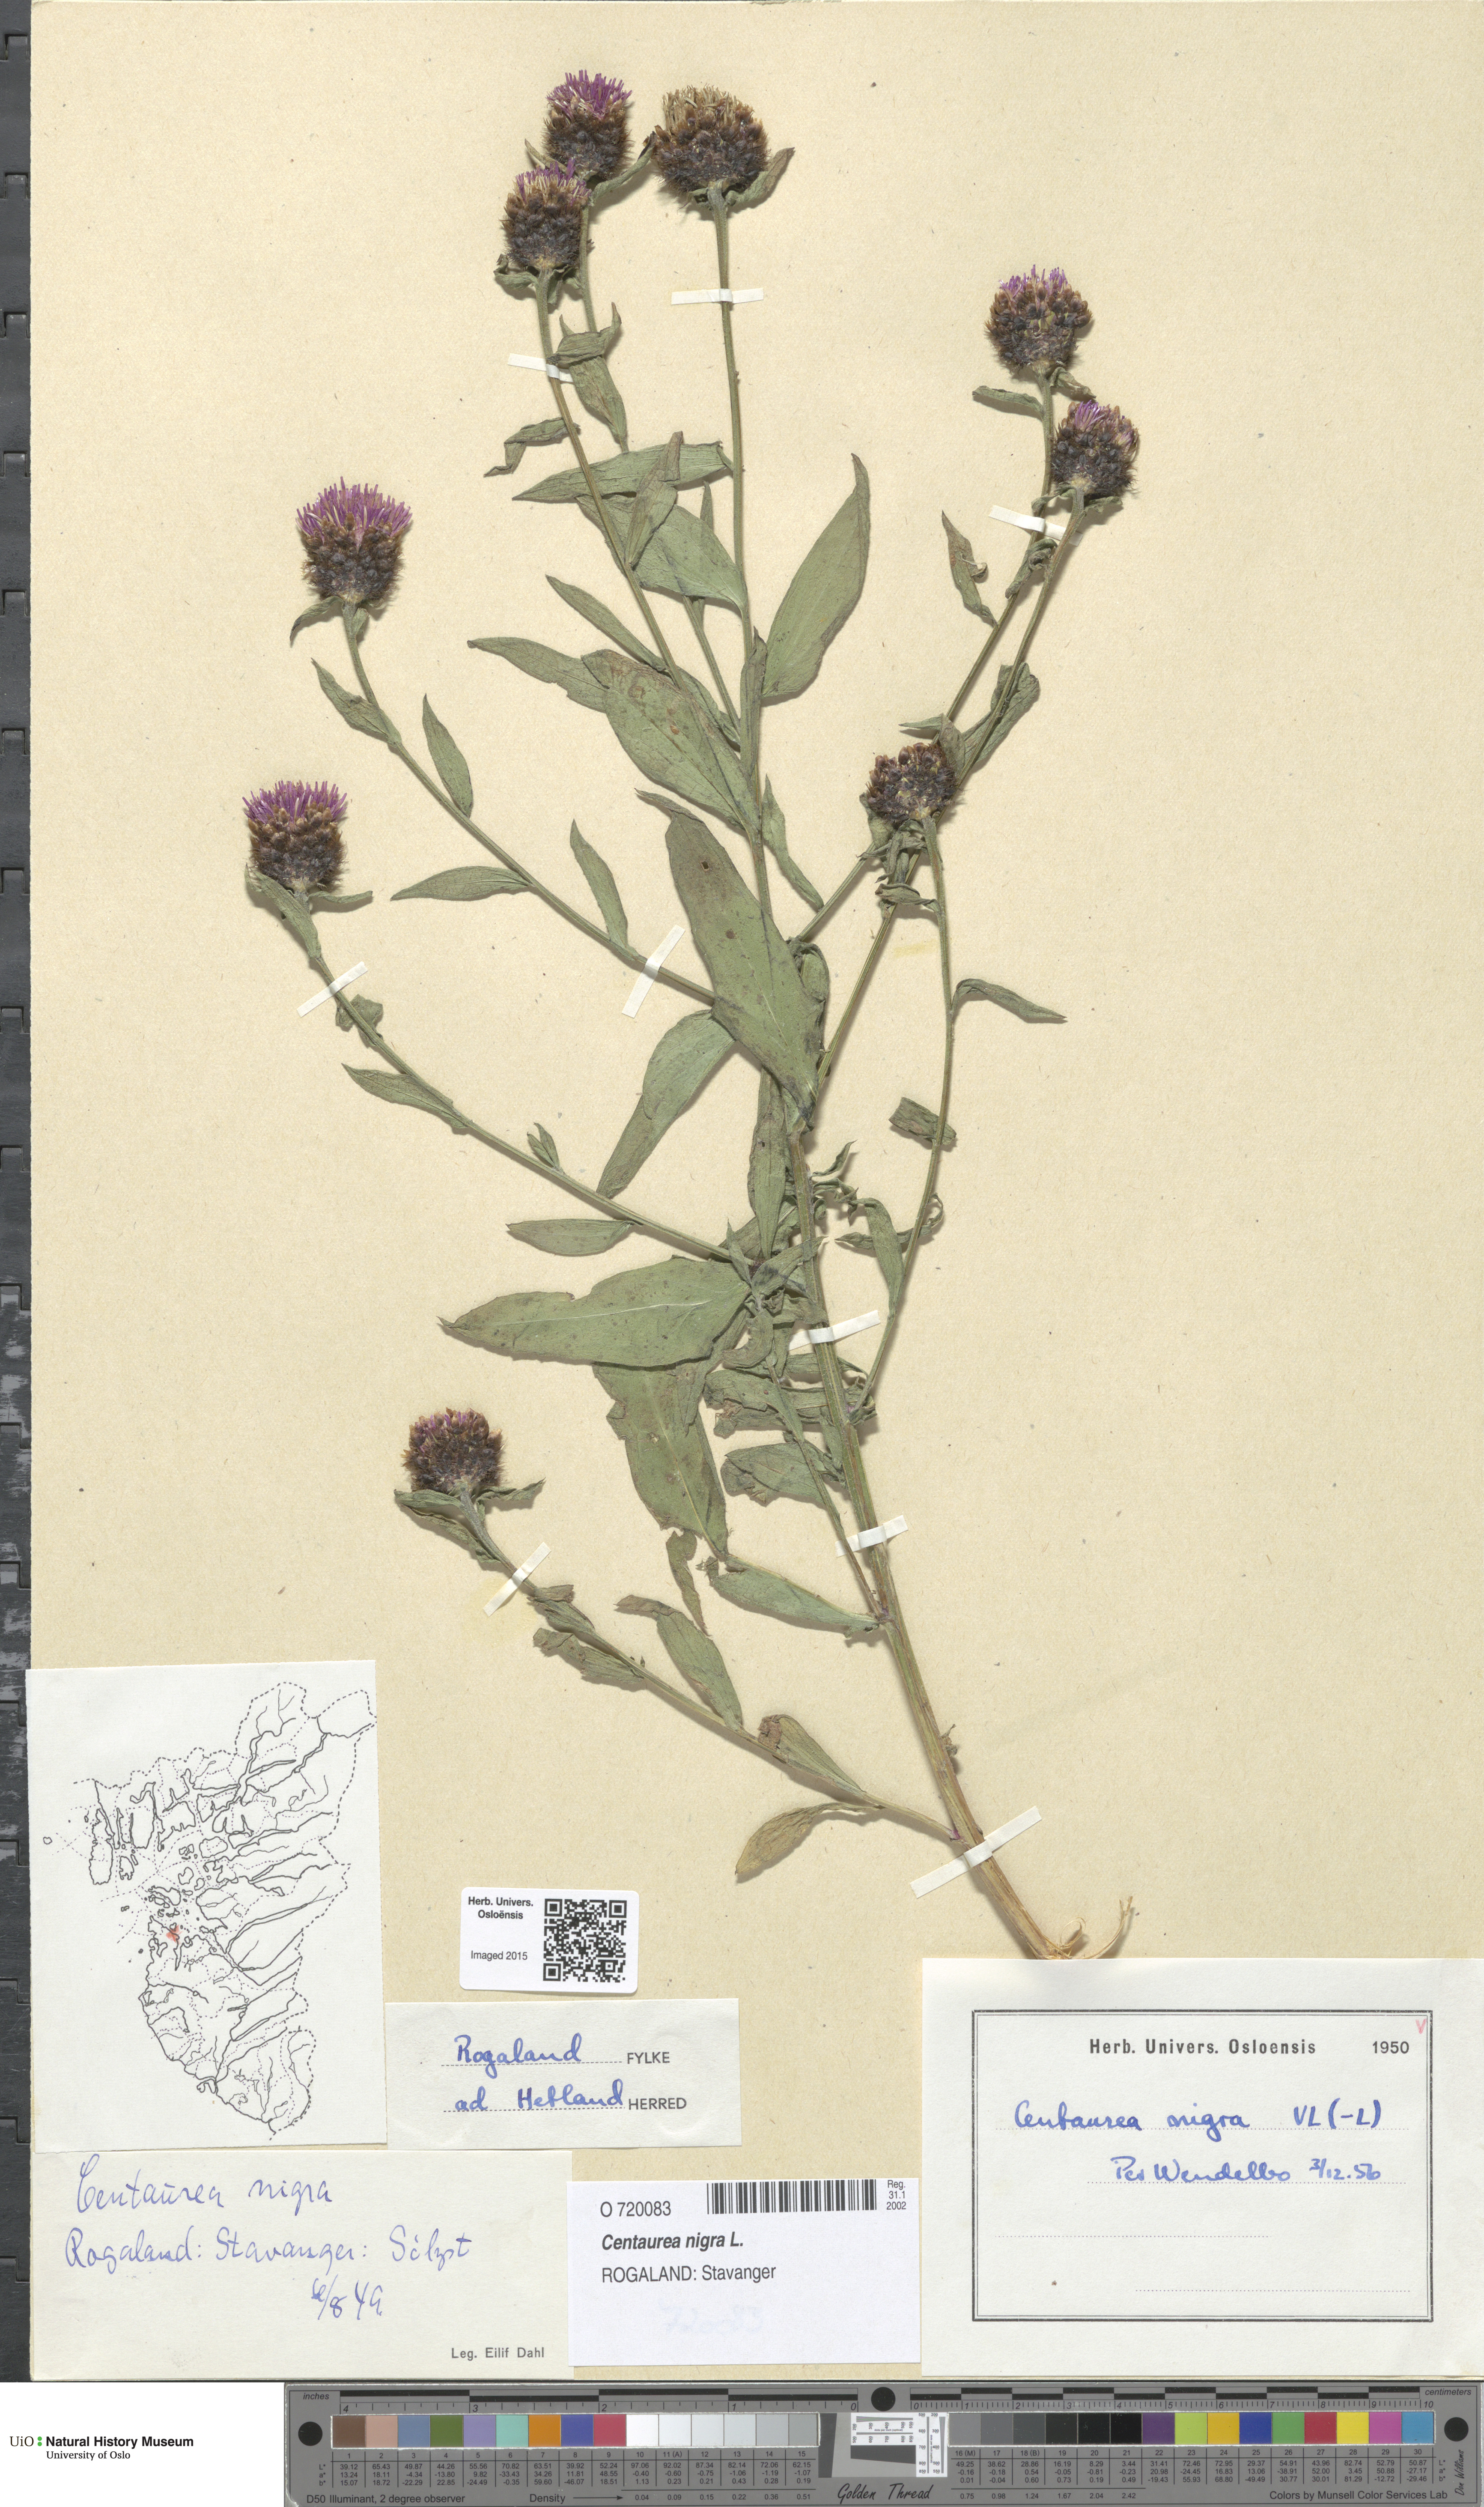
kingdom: Plantae
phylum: Tracheophyta
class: Magnoliopsida
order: Asterales
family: Asteraceae
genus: Centaurea
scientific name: Centaurea nigra
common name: Lesser knapweed
